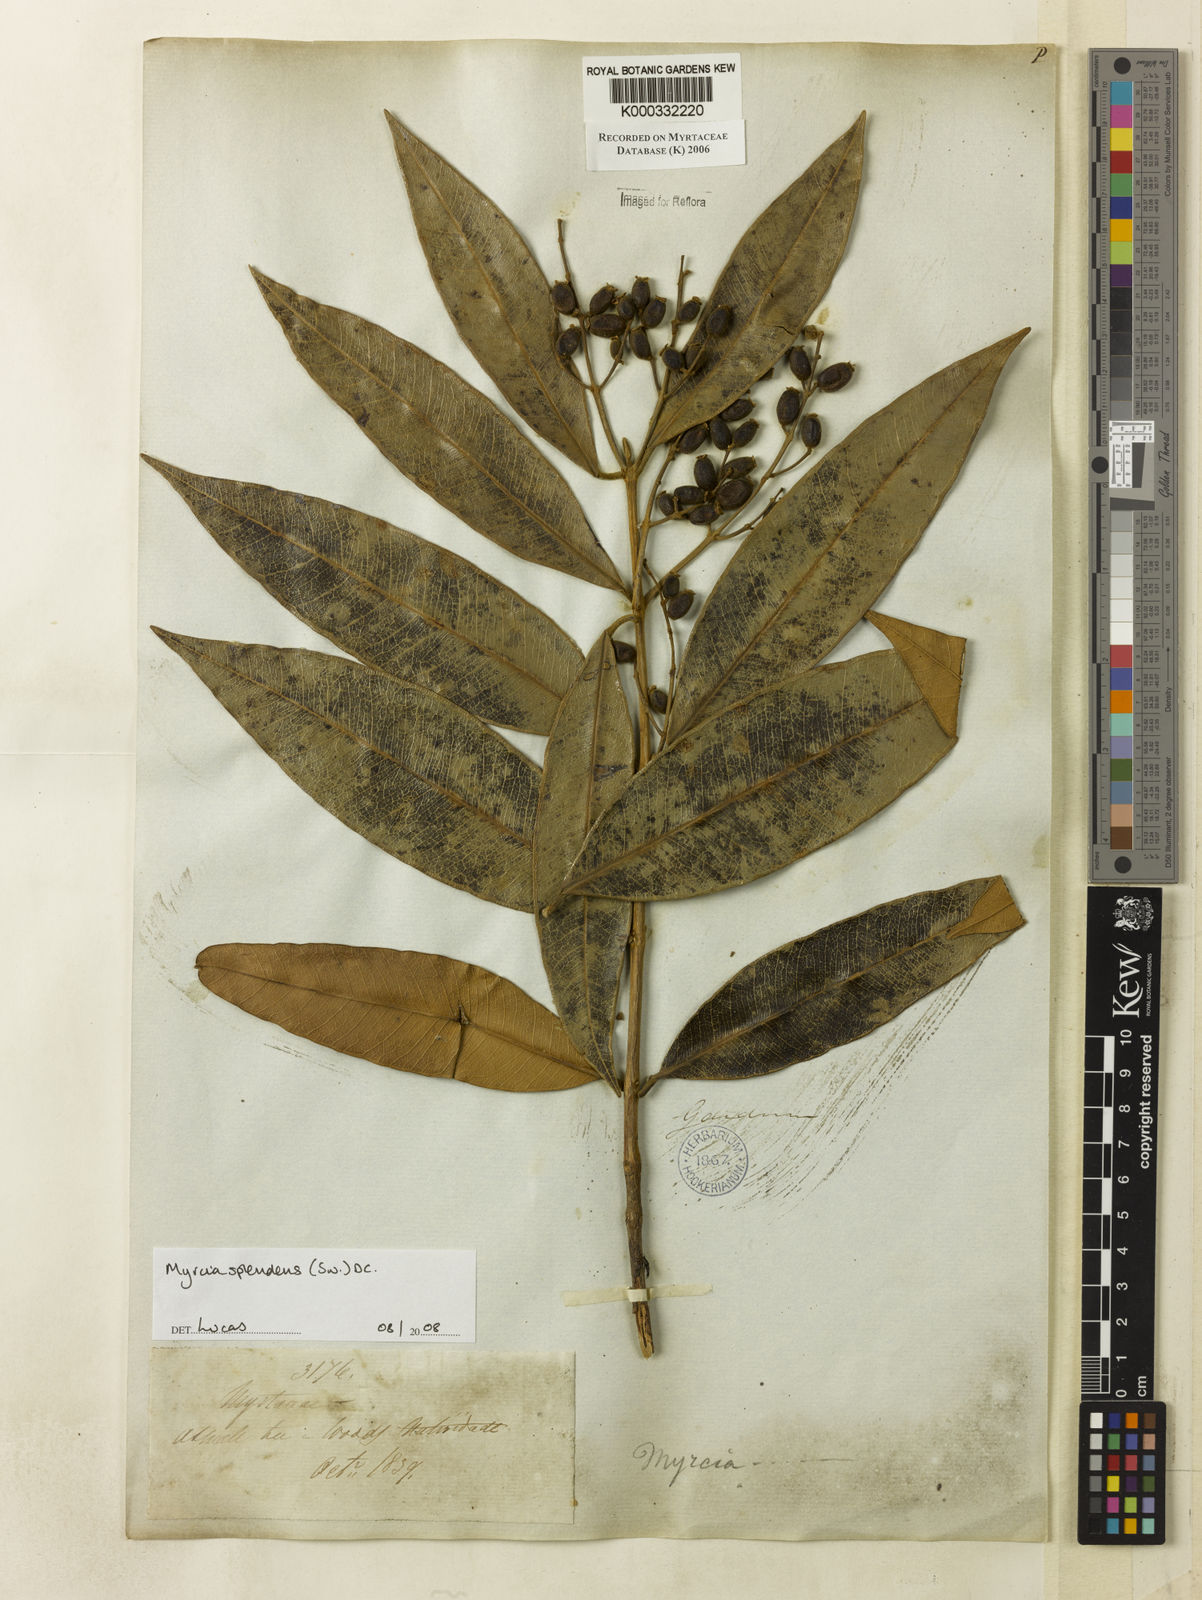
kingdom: Plantae
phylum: Tracheophyta
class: Magnoliopsida
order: Myrtales
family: Myrtaceae
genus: Myrcia
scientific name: Myrcia splendens
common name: Surinam cherry
